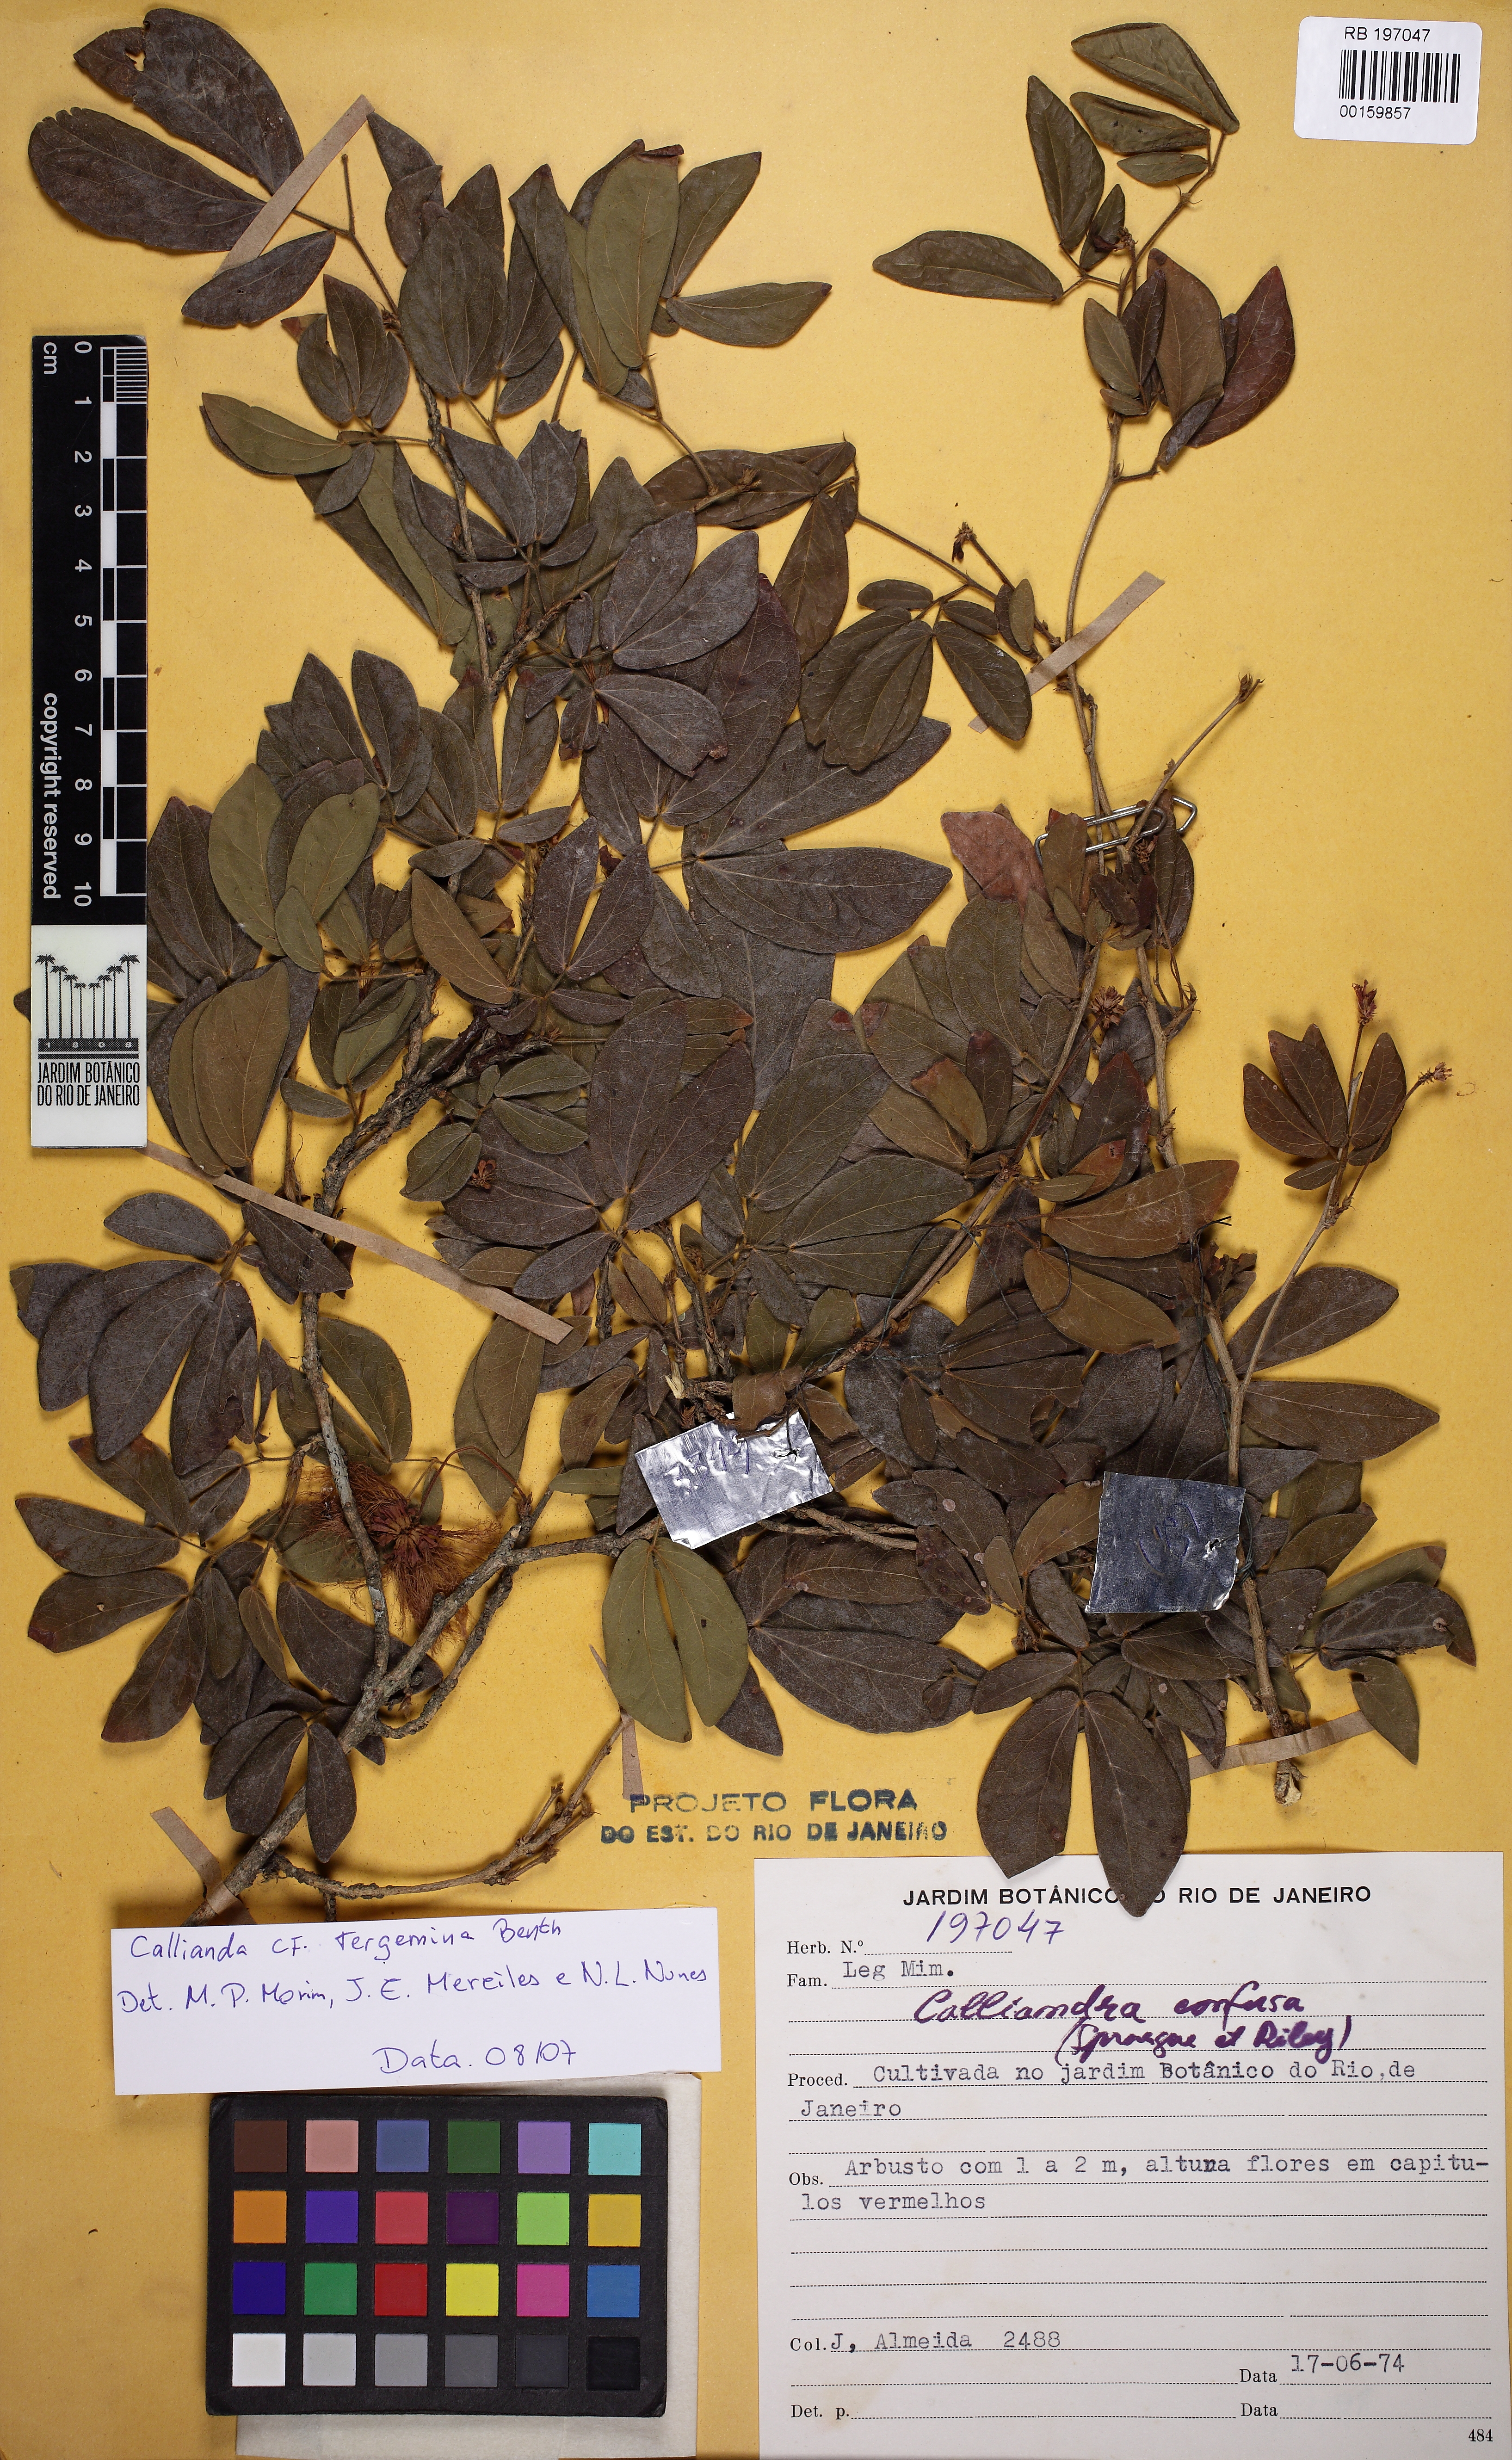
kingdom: Plantae
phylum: Tracheophyta
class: Magnoliopsida
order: Fabales
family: Fabaceae
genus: Calliandra
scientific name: Calliandra tergemina
